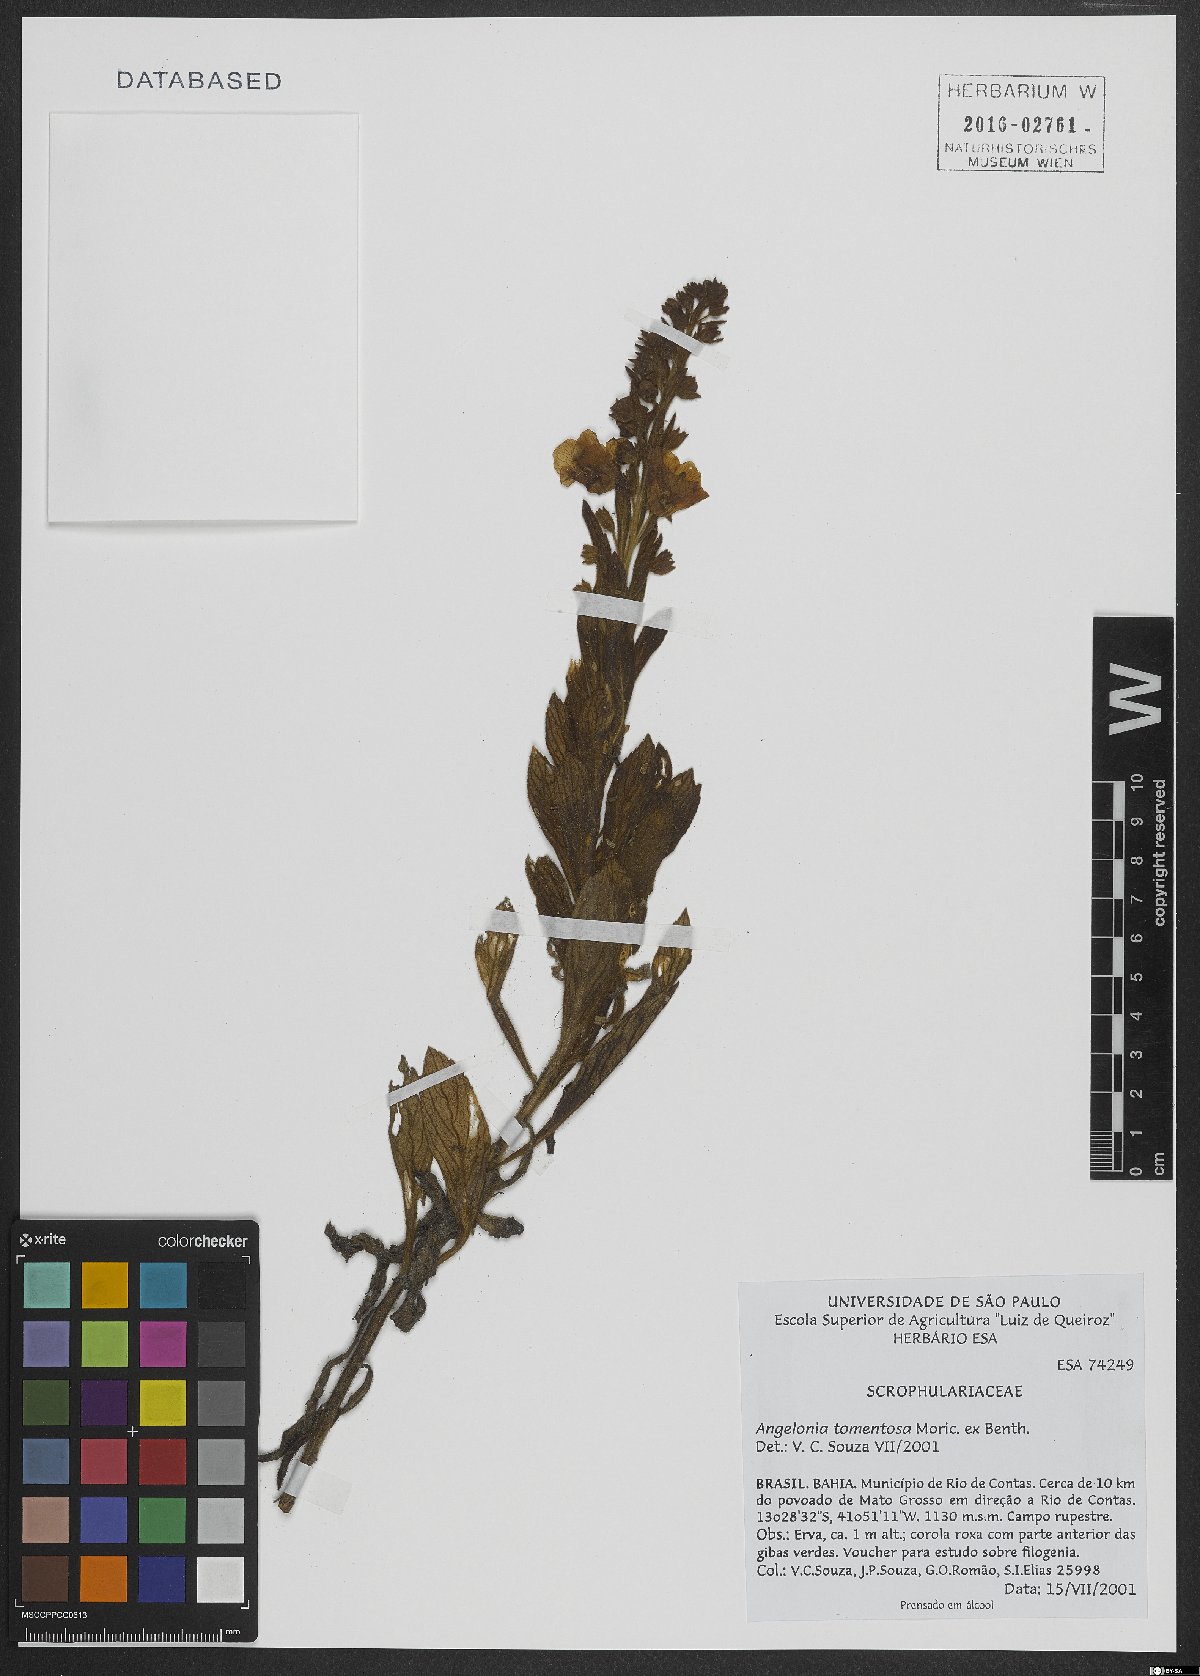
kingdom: Plantae
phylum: Tracheophyta
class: Magnoliopsida
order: Lamiales
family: Plantaginaceae
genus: Angelonia
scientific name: Angelonia tomentosa
